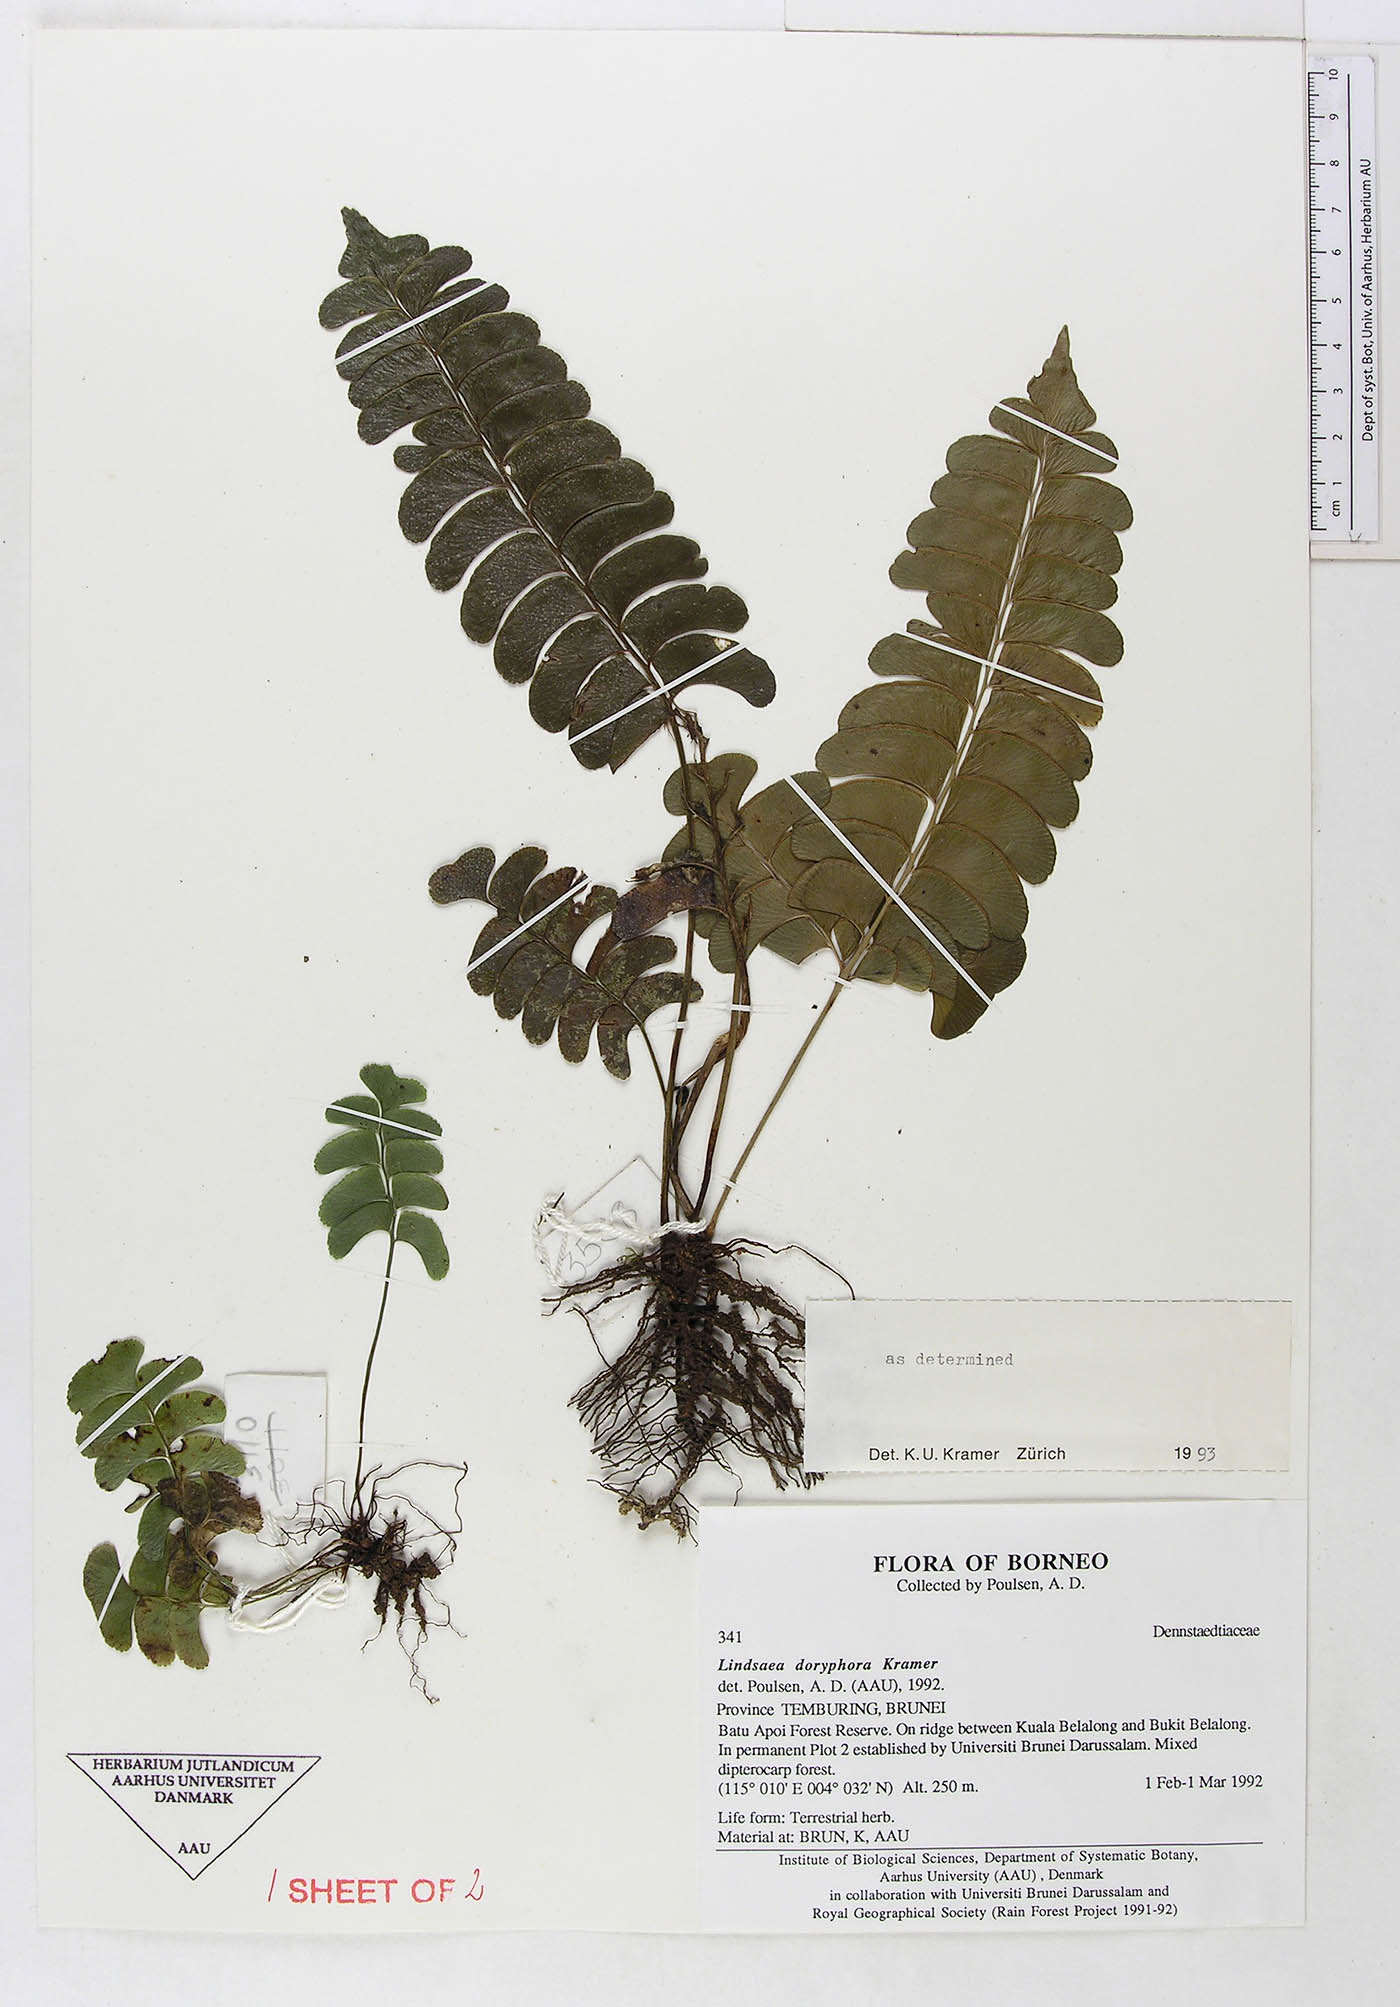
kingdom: Plantae
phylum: Tracheophyta
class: Polypodiopsida
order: Polypodiales
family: Lindsaeaceae
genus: Lindsaea
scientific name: Lindsaea doryphora
